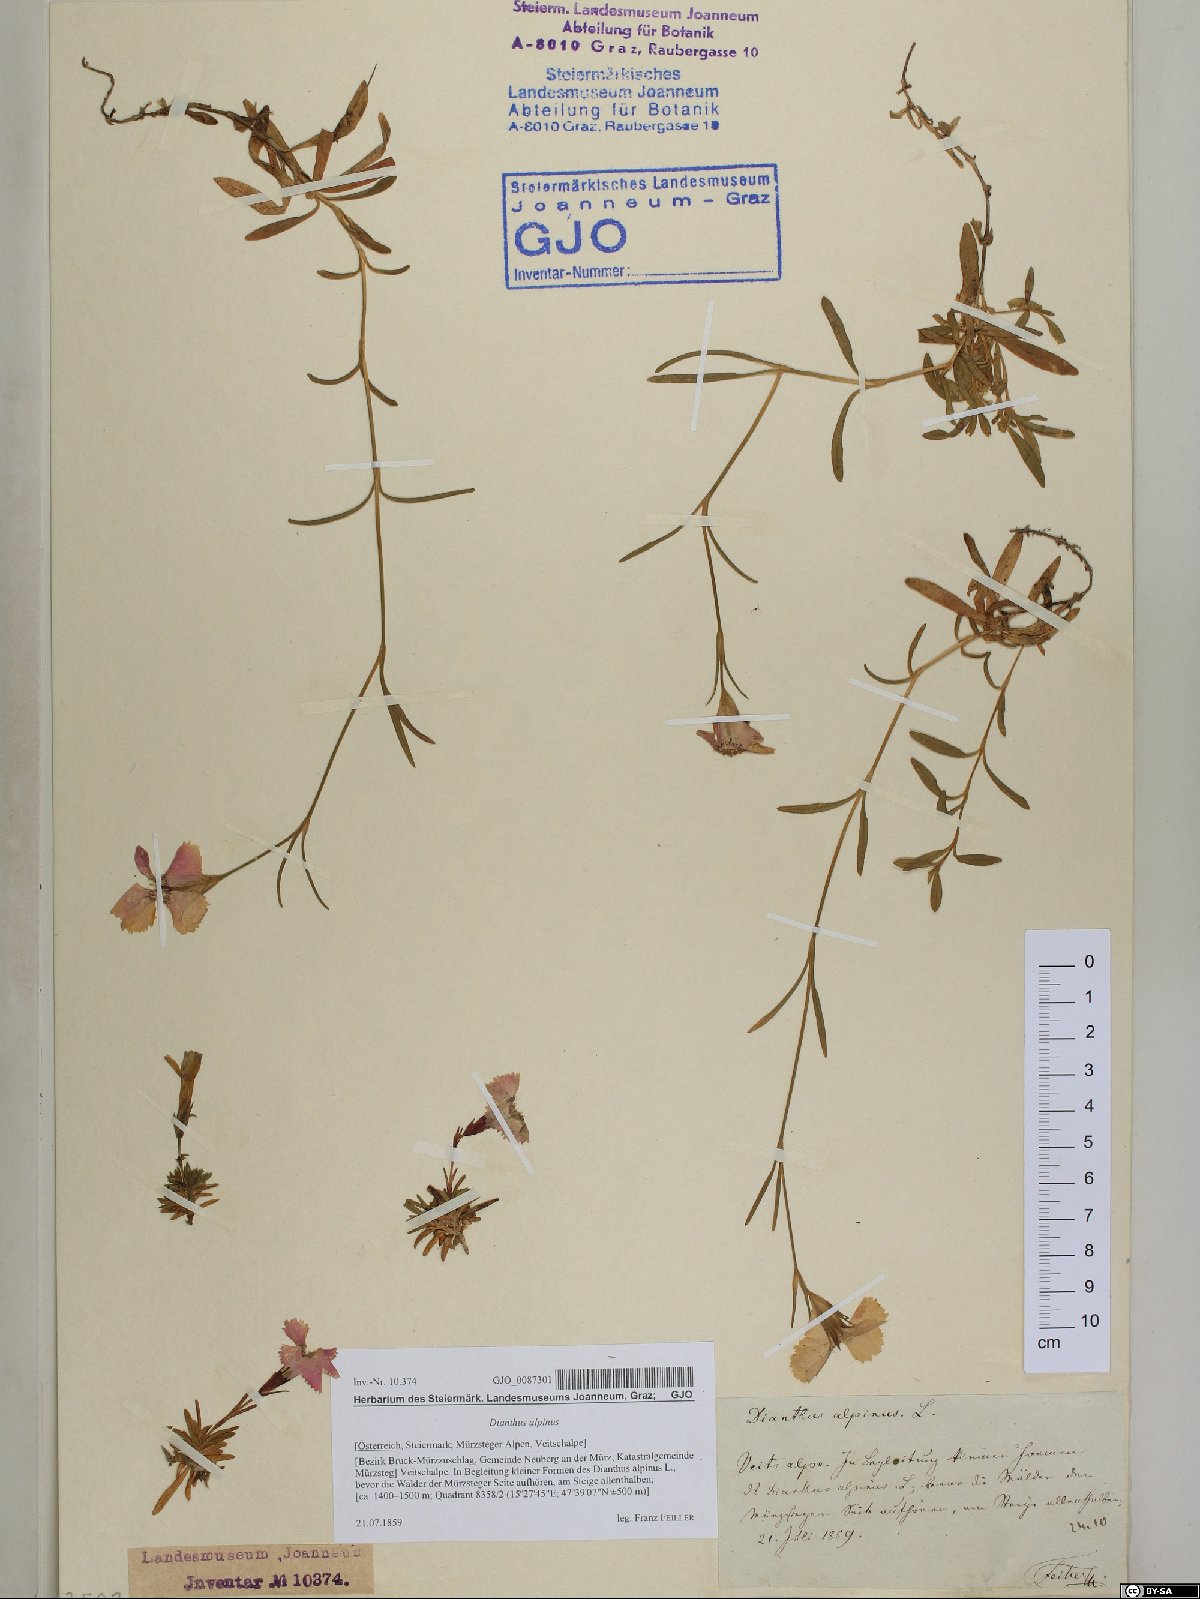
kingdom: Plantae
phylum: Tracheophyta
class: Magnoliopsida
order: Caryophyllales
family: Caryophyllaceae
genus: Dianthus
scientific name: Dianthus alpinus
